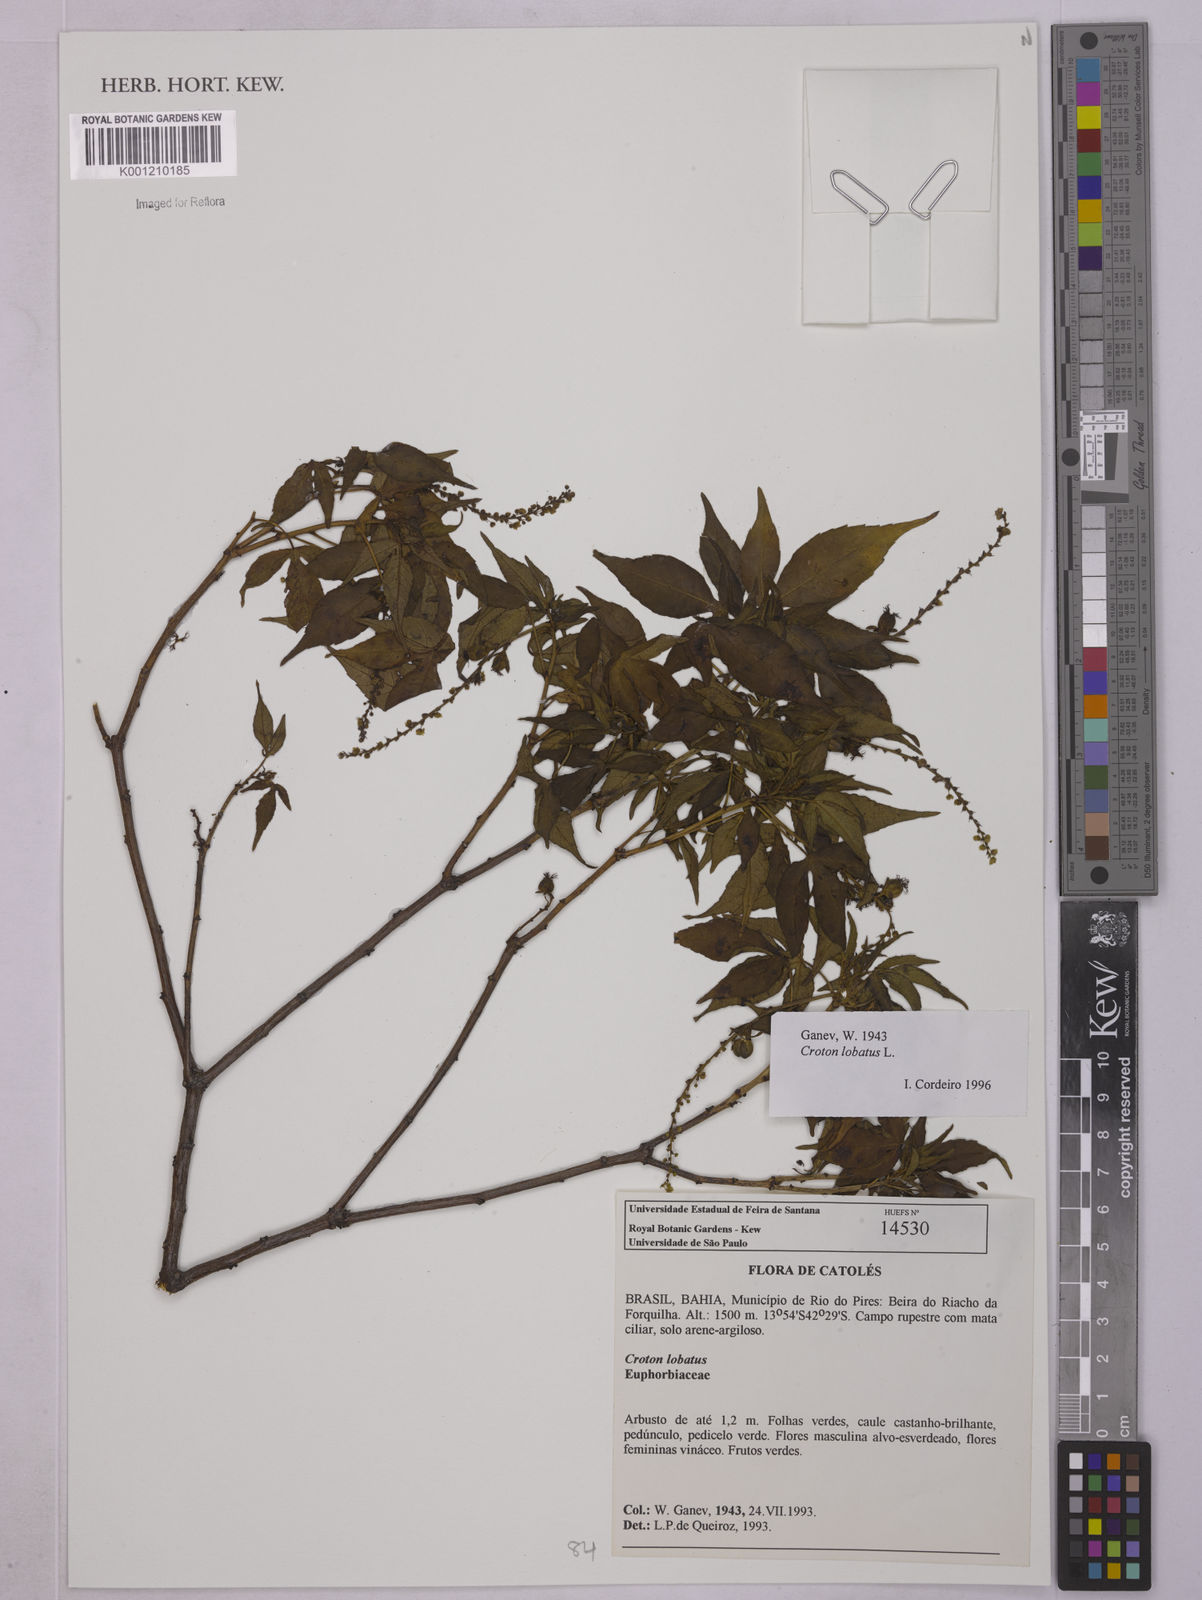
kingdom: Plantae
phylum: Tracheophyta
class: Magnoliopsida
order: Malpighiales
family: Euphorbiaceae
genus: Astraea
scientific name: Astraea lobata
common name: Lobed croton
